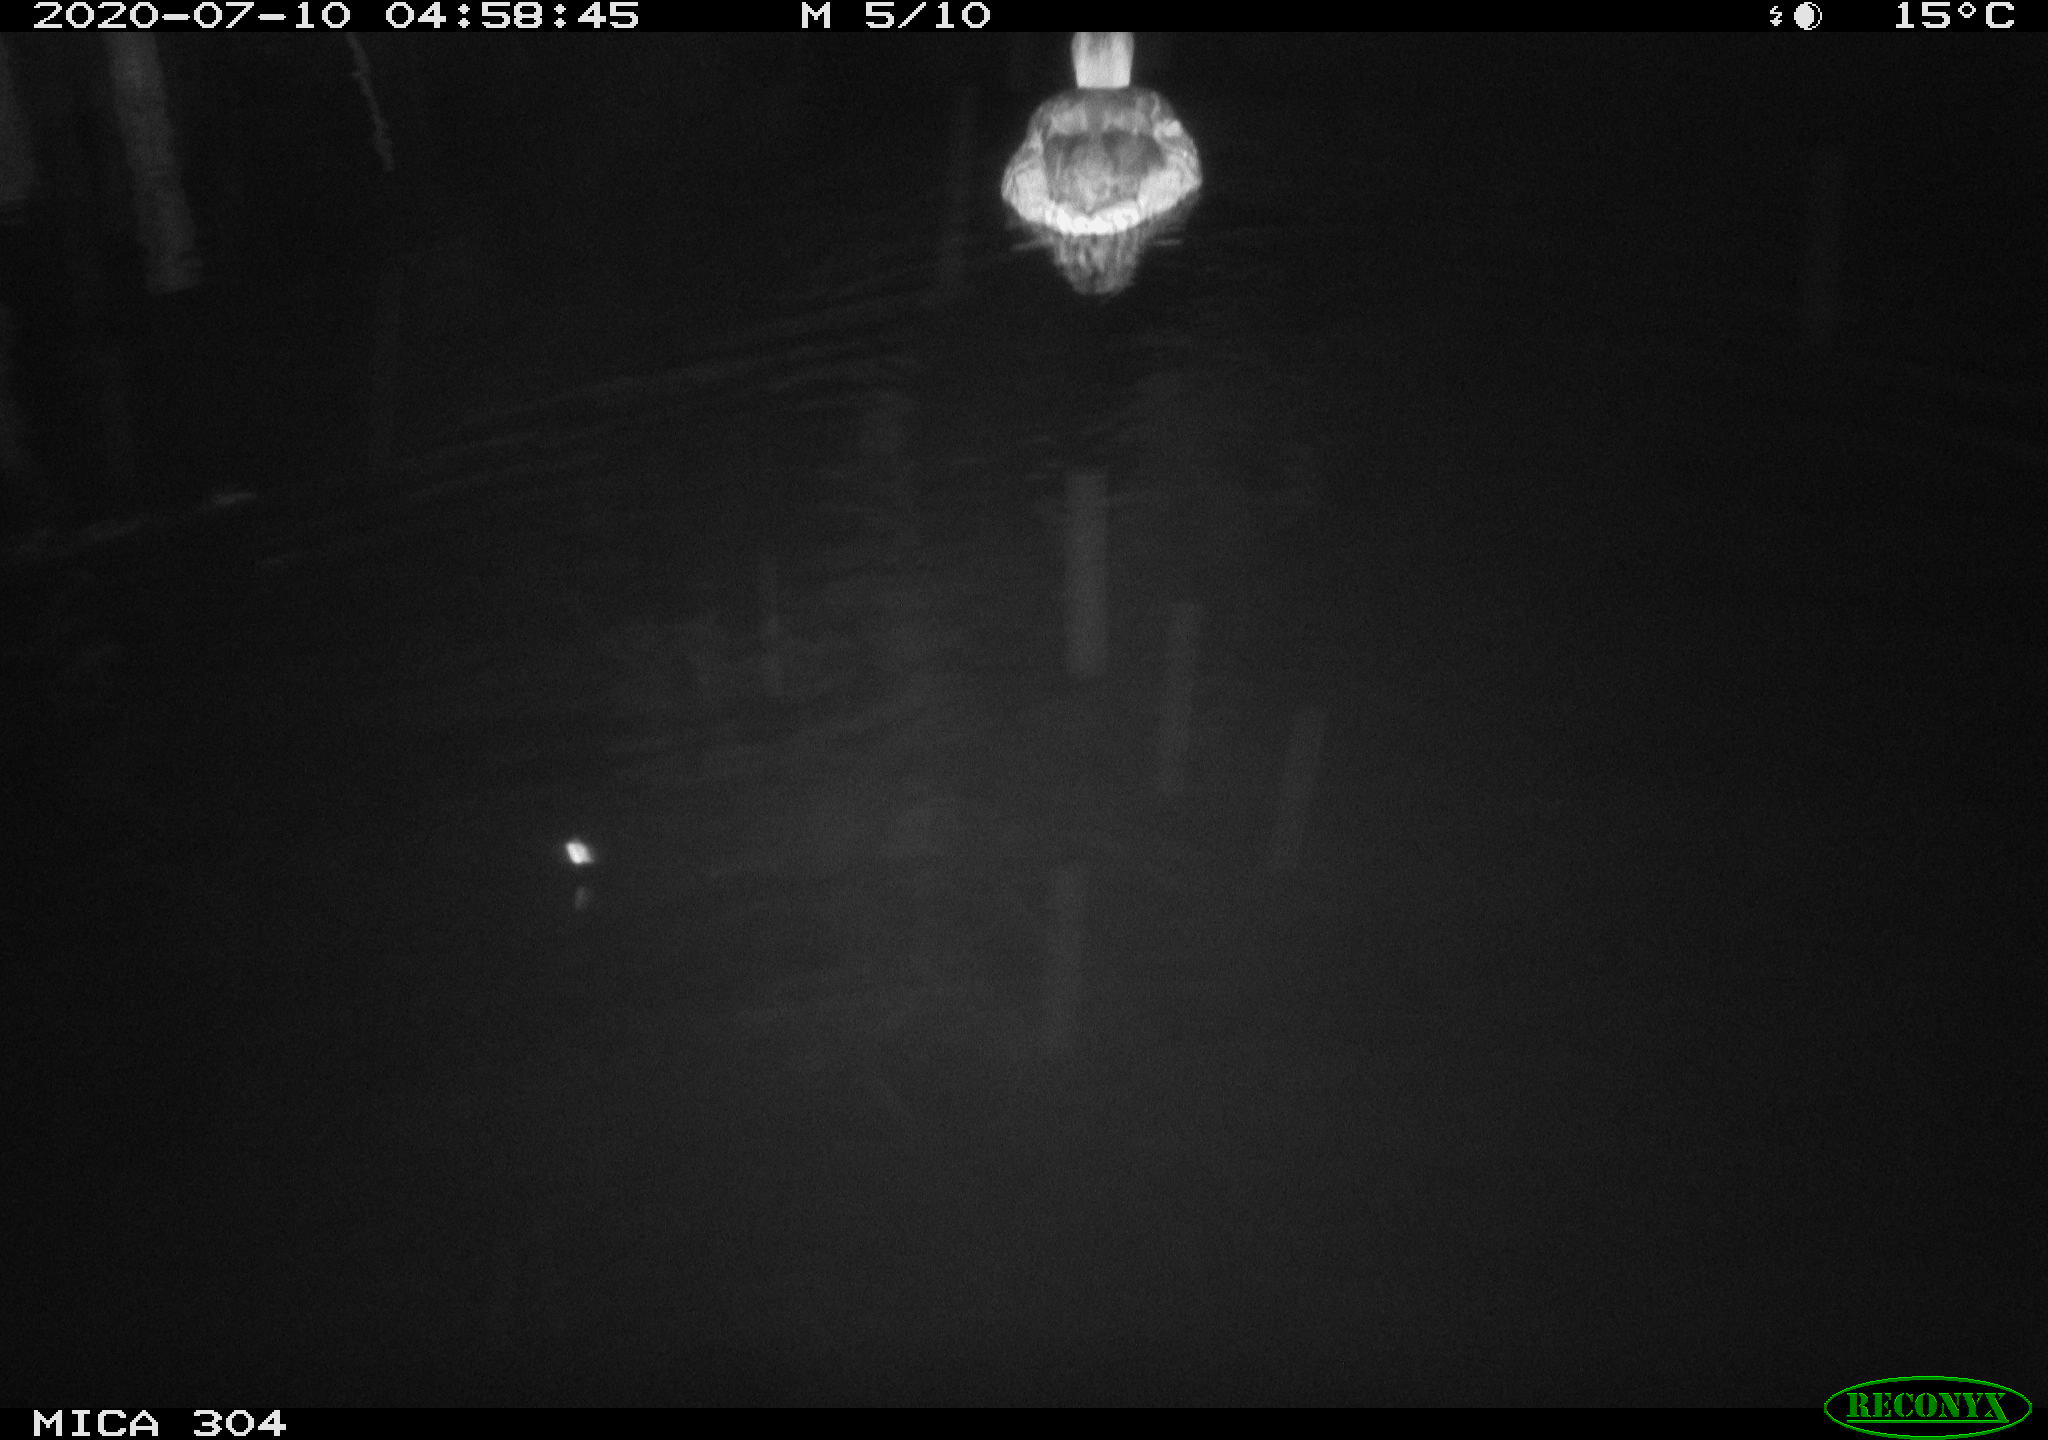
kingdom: Animalia
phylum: Chordata
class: Aves
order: Anseriformes
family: Anatidae
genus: Anas
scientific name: Anas platyrhynchos
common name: Mallard
